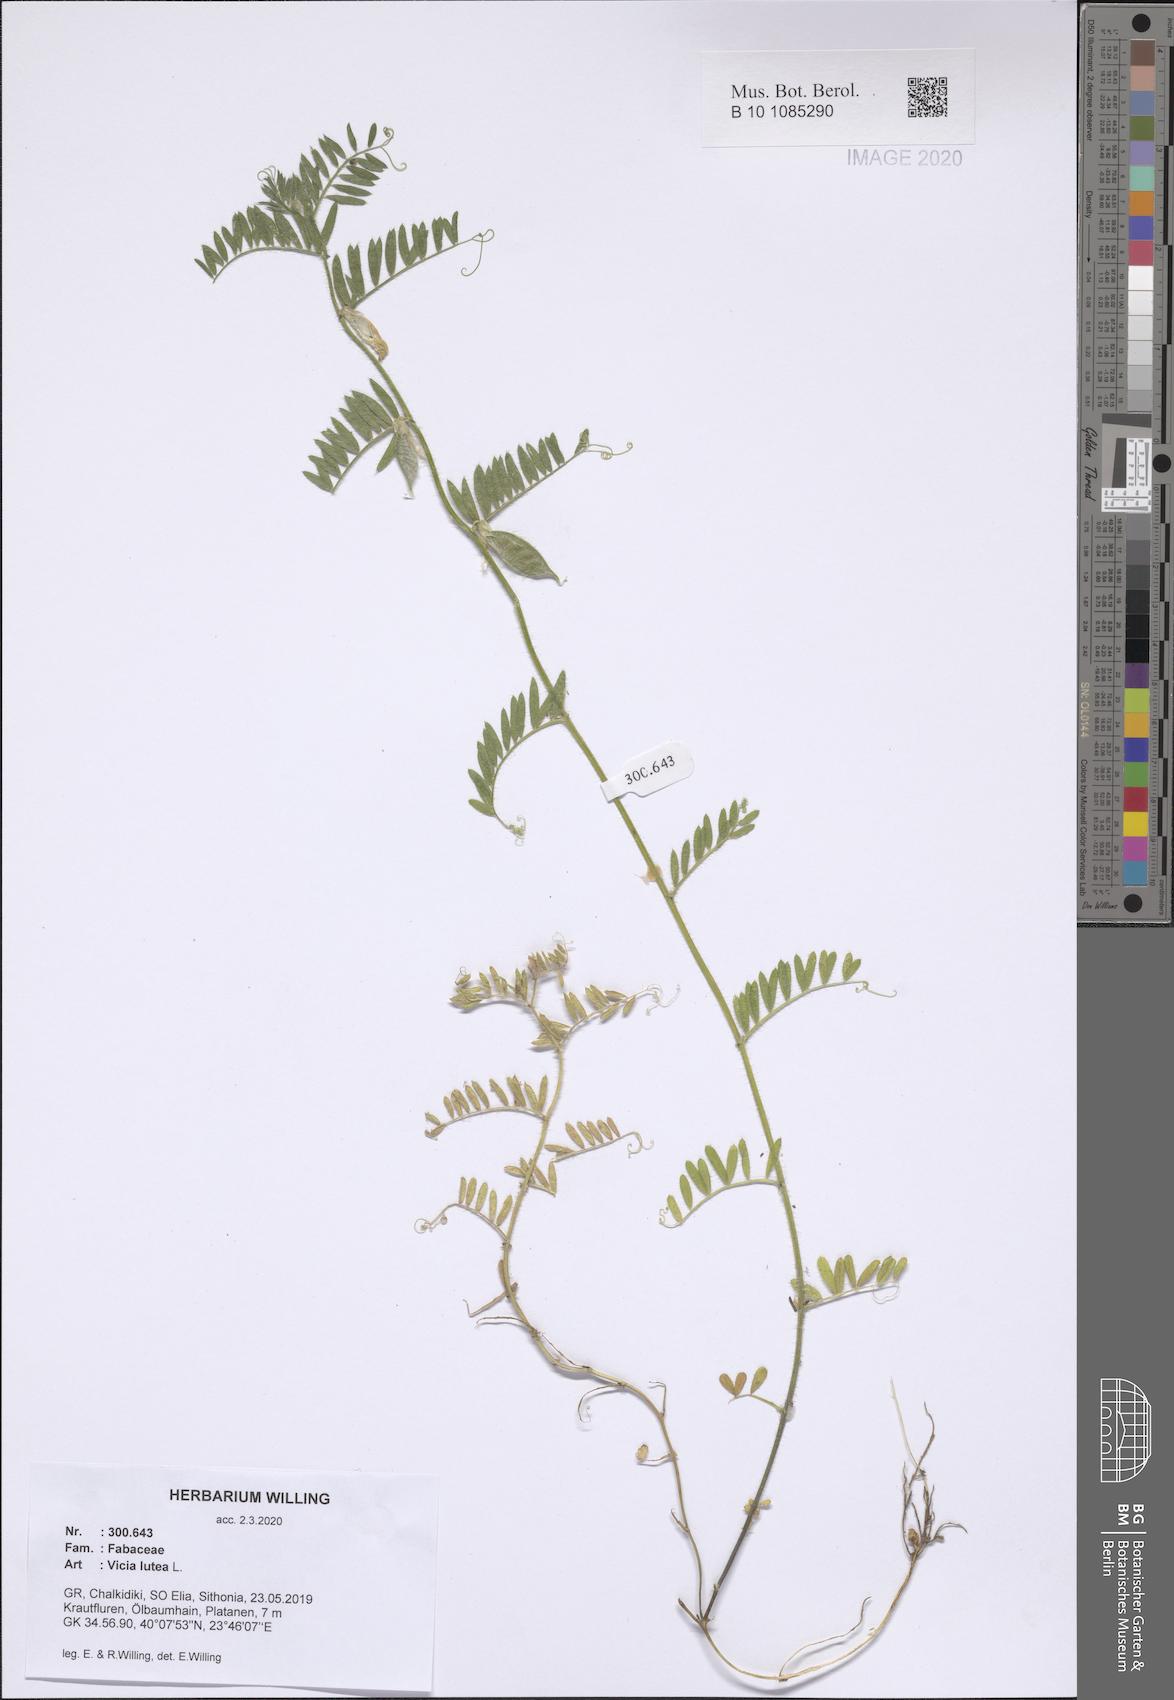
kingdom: Plantae
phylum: Tracheophyta
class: Magnoliopsida
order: Fabales
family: Fabaceae
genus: Vicia
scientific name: Vicia lutea
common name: Smooth yellow vetch
